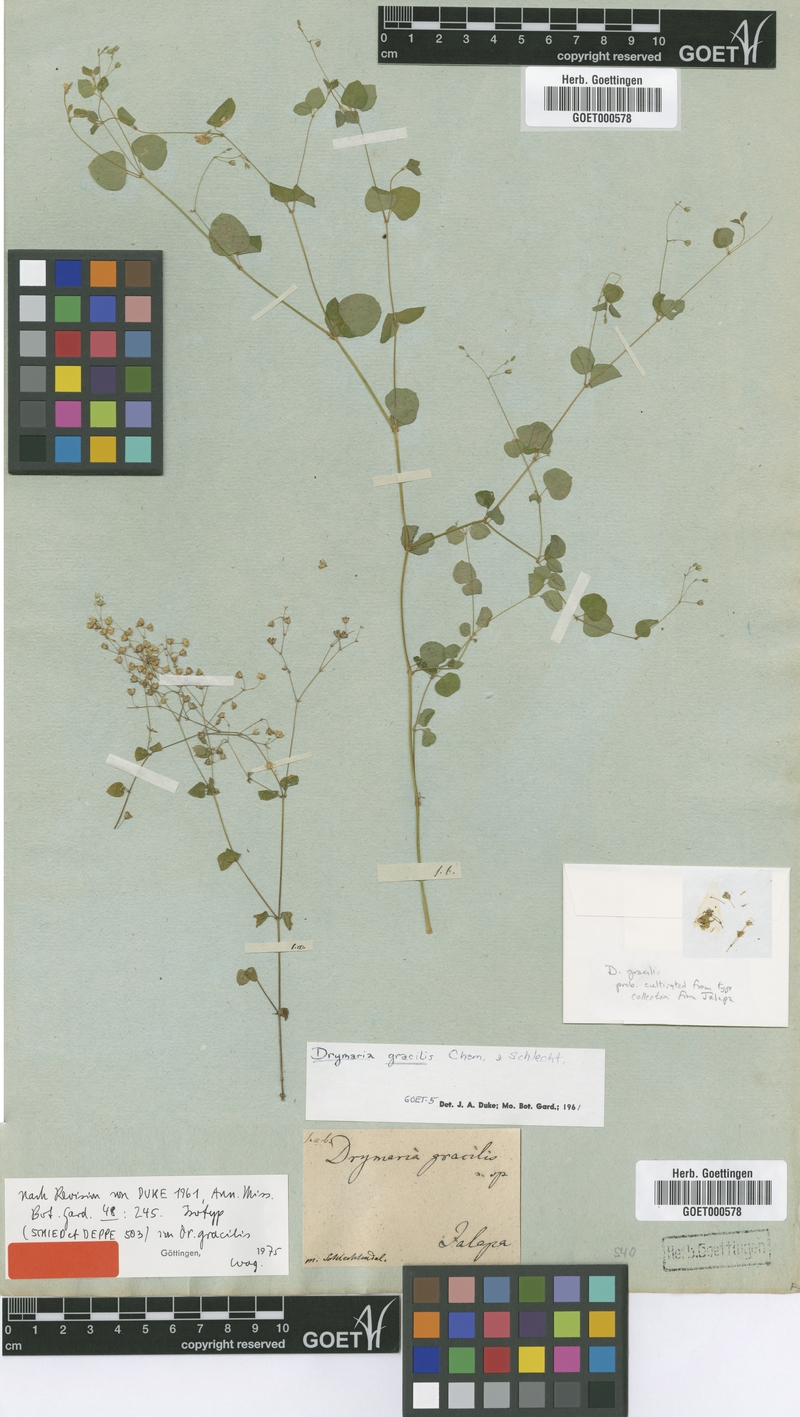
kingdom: Plantae
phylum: Tracheophyta
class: Magnoliopsida
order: Caryophyllales
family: Caryophyllaceae
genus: Drymaria
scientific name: Drymaria gracilis
